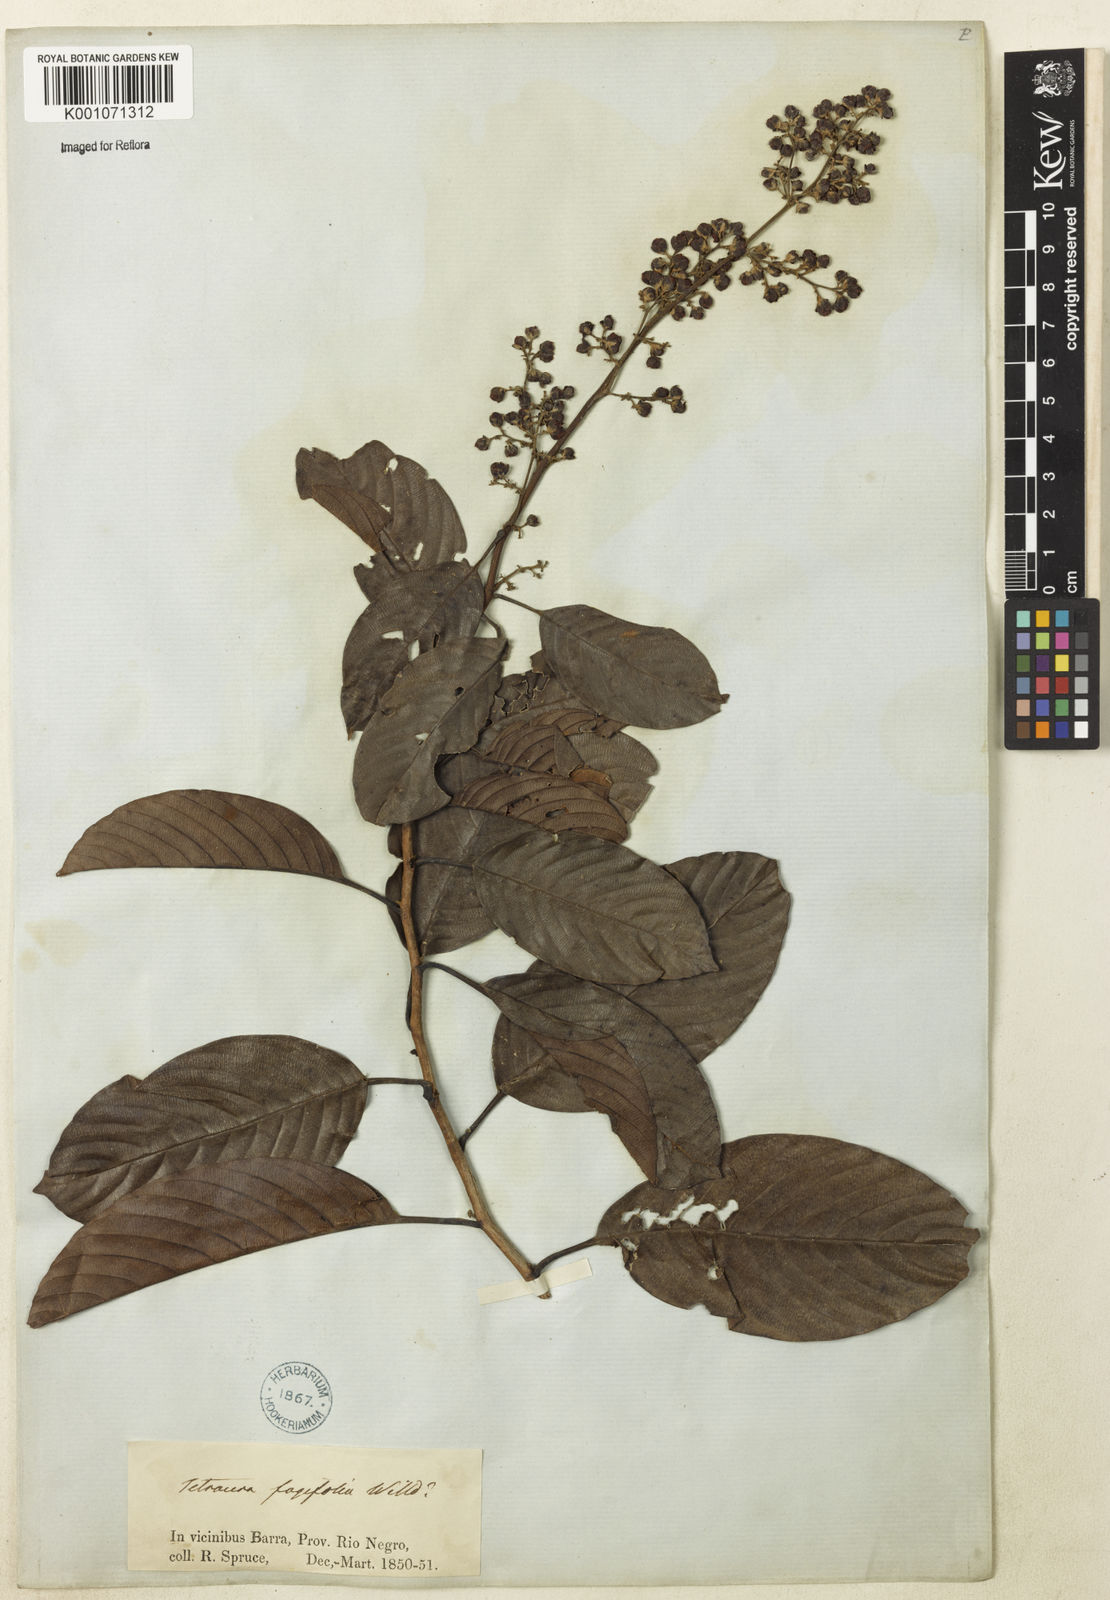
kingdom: Plantae
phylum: Tracheophyta
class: Magnoliopsida
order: Dilleniales
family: Dilleniaceae
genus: Tetracera
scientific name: Tetracera willdenowiana
